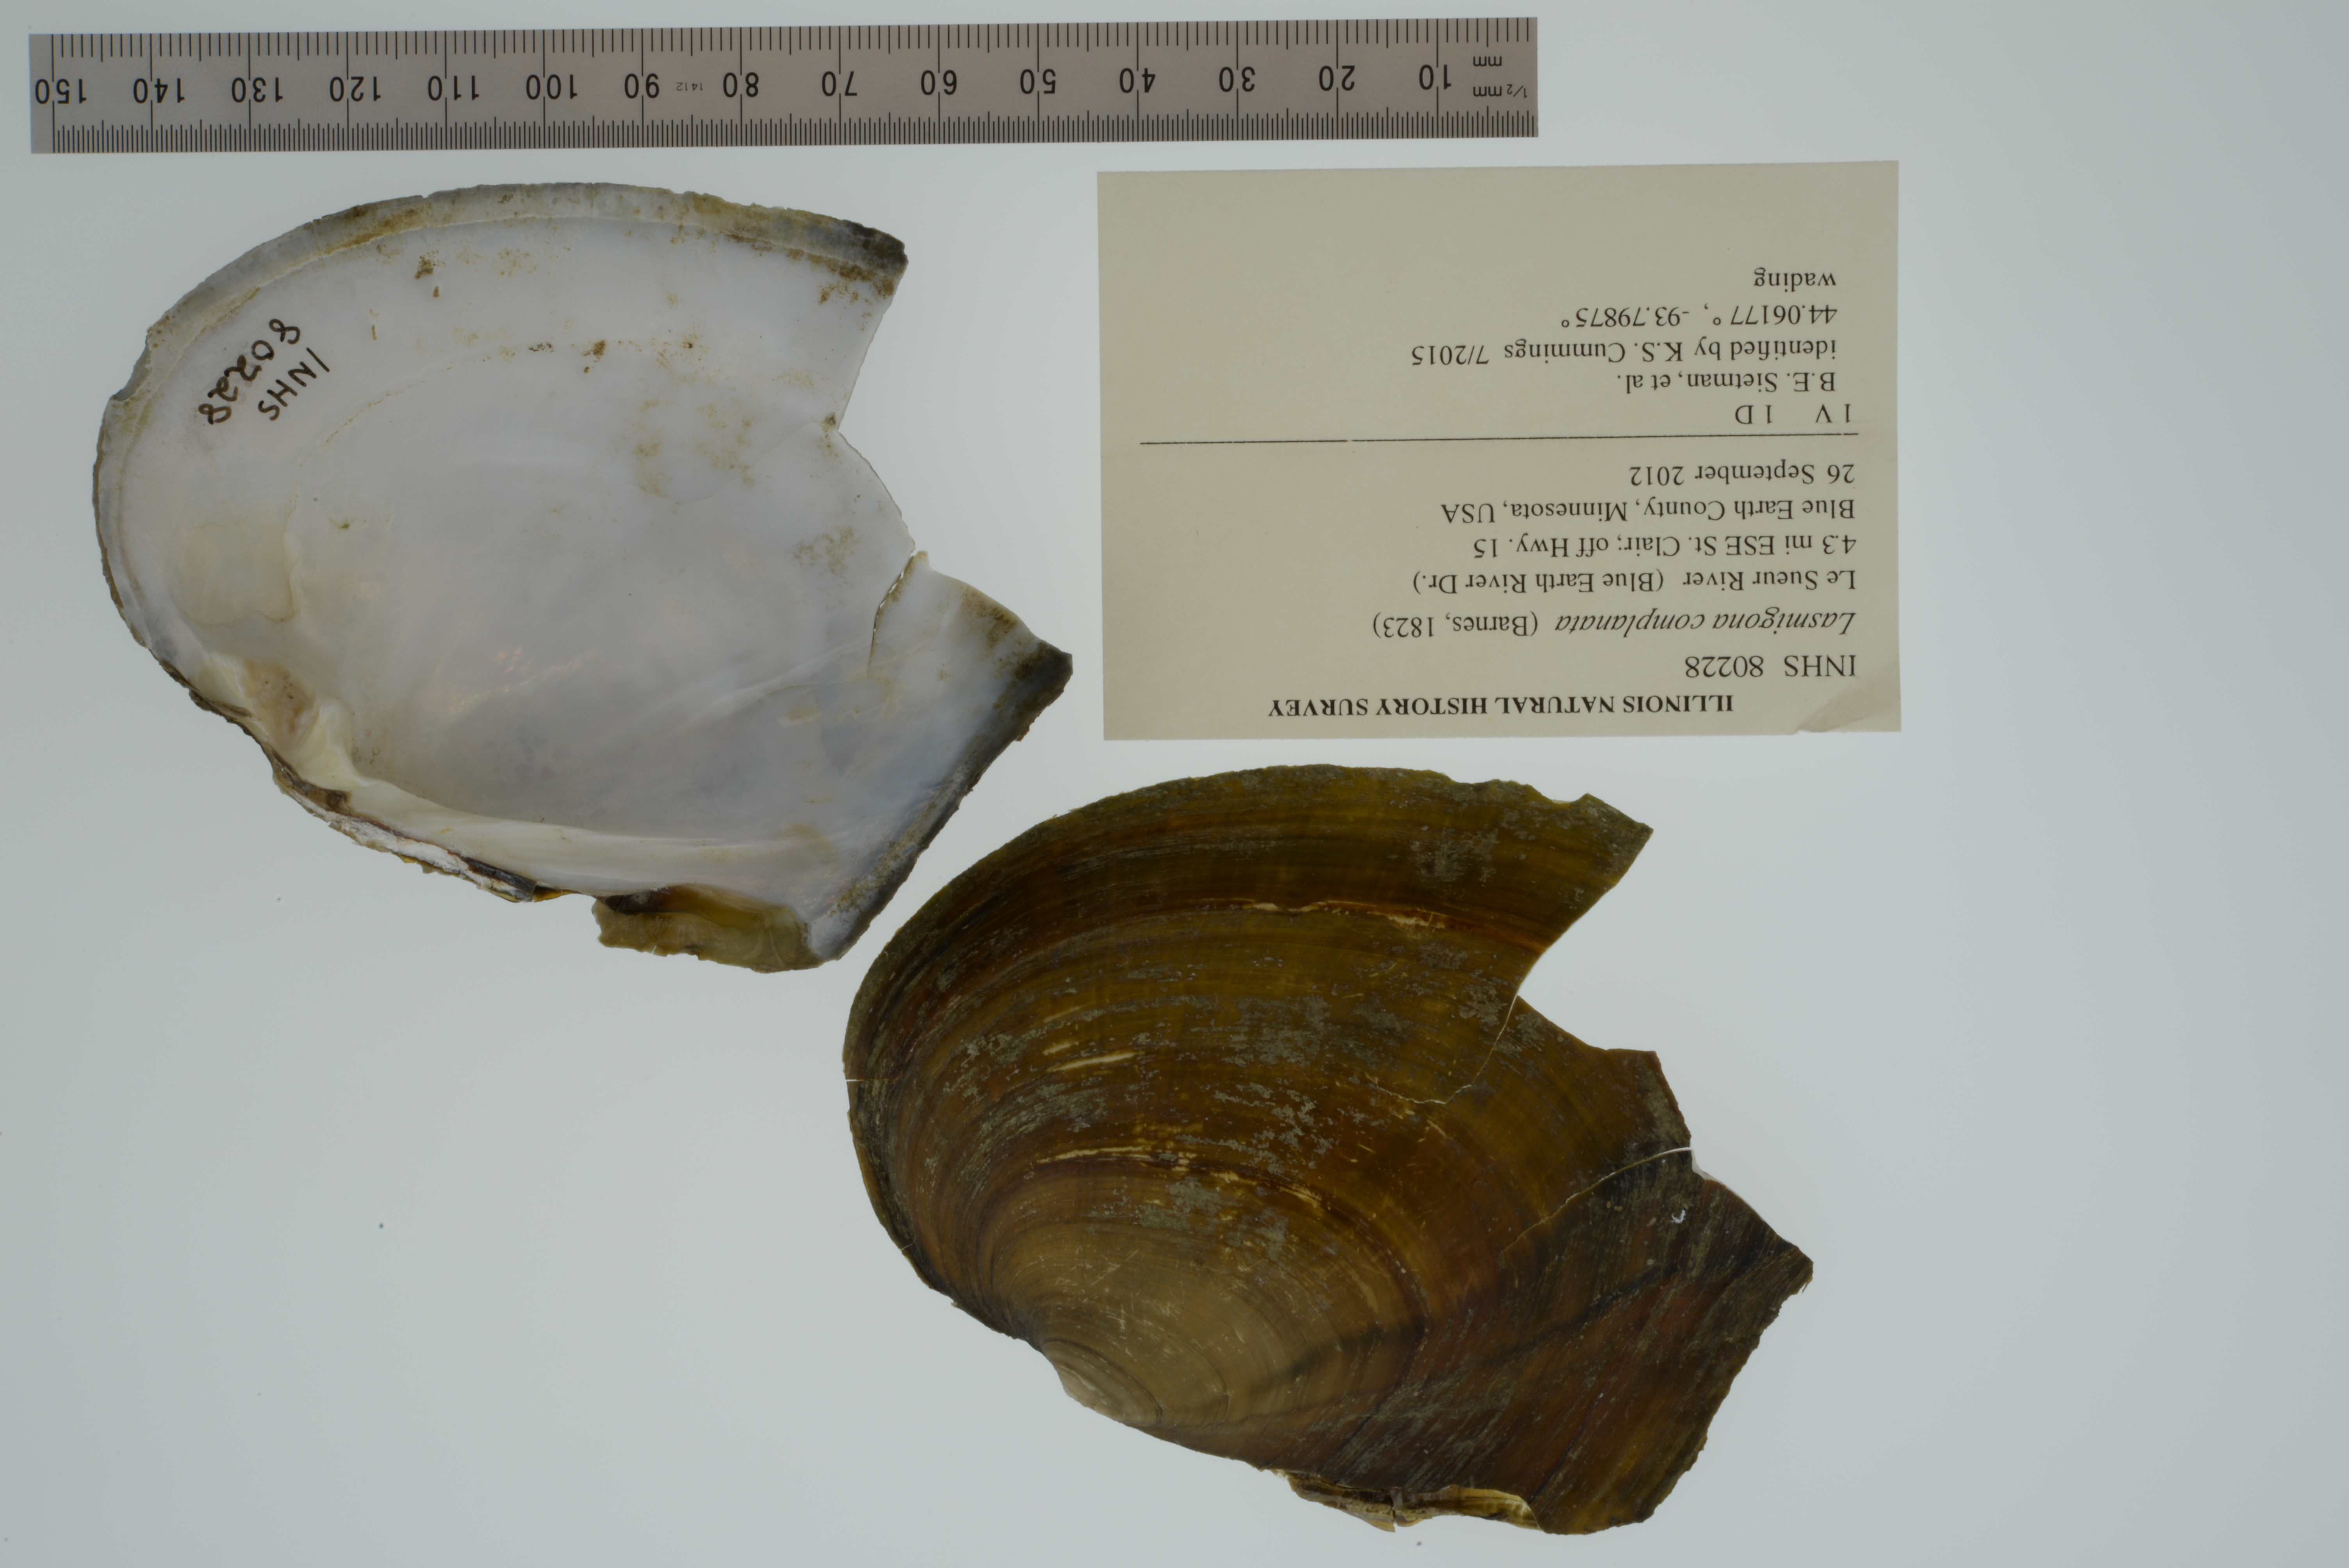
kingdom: Animalia
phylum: Mollusca
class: Bivalvia
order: Unionida
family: Unionidae
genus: Lasmigona
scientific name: Lasmigona complanata
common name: White heelsplitter
